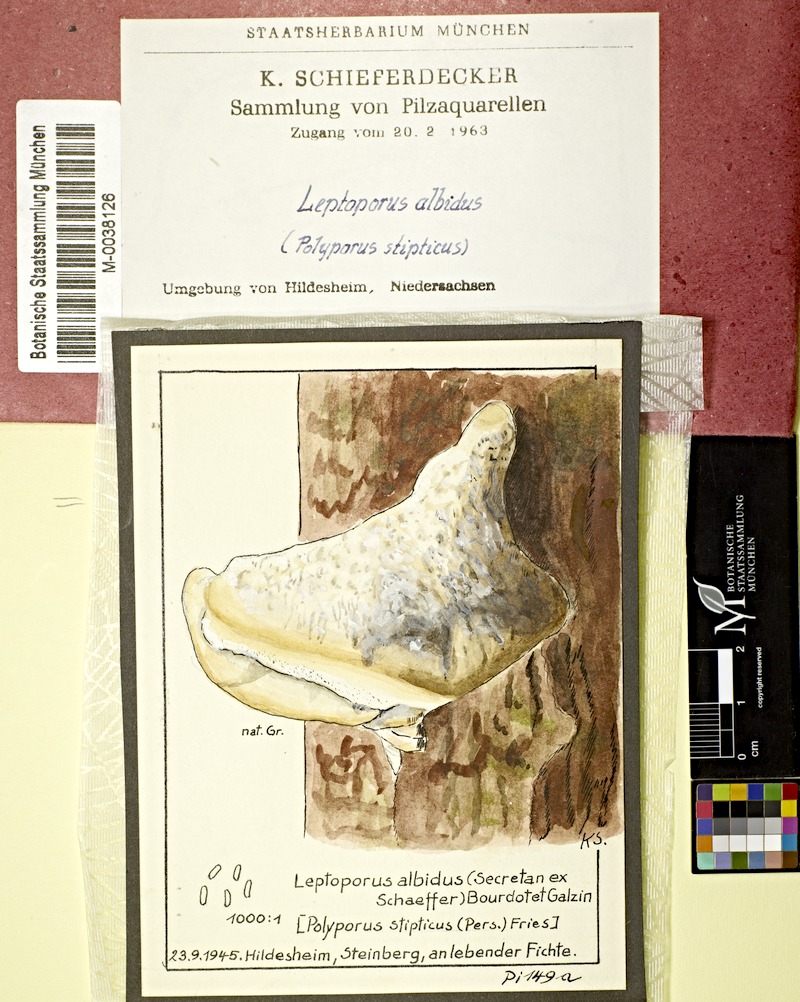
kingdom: Fungi
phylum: Basidiomycota
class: Agaricomycetes
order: Polyporales
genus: Amaropostia
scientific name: Amaropostia stiptica
